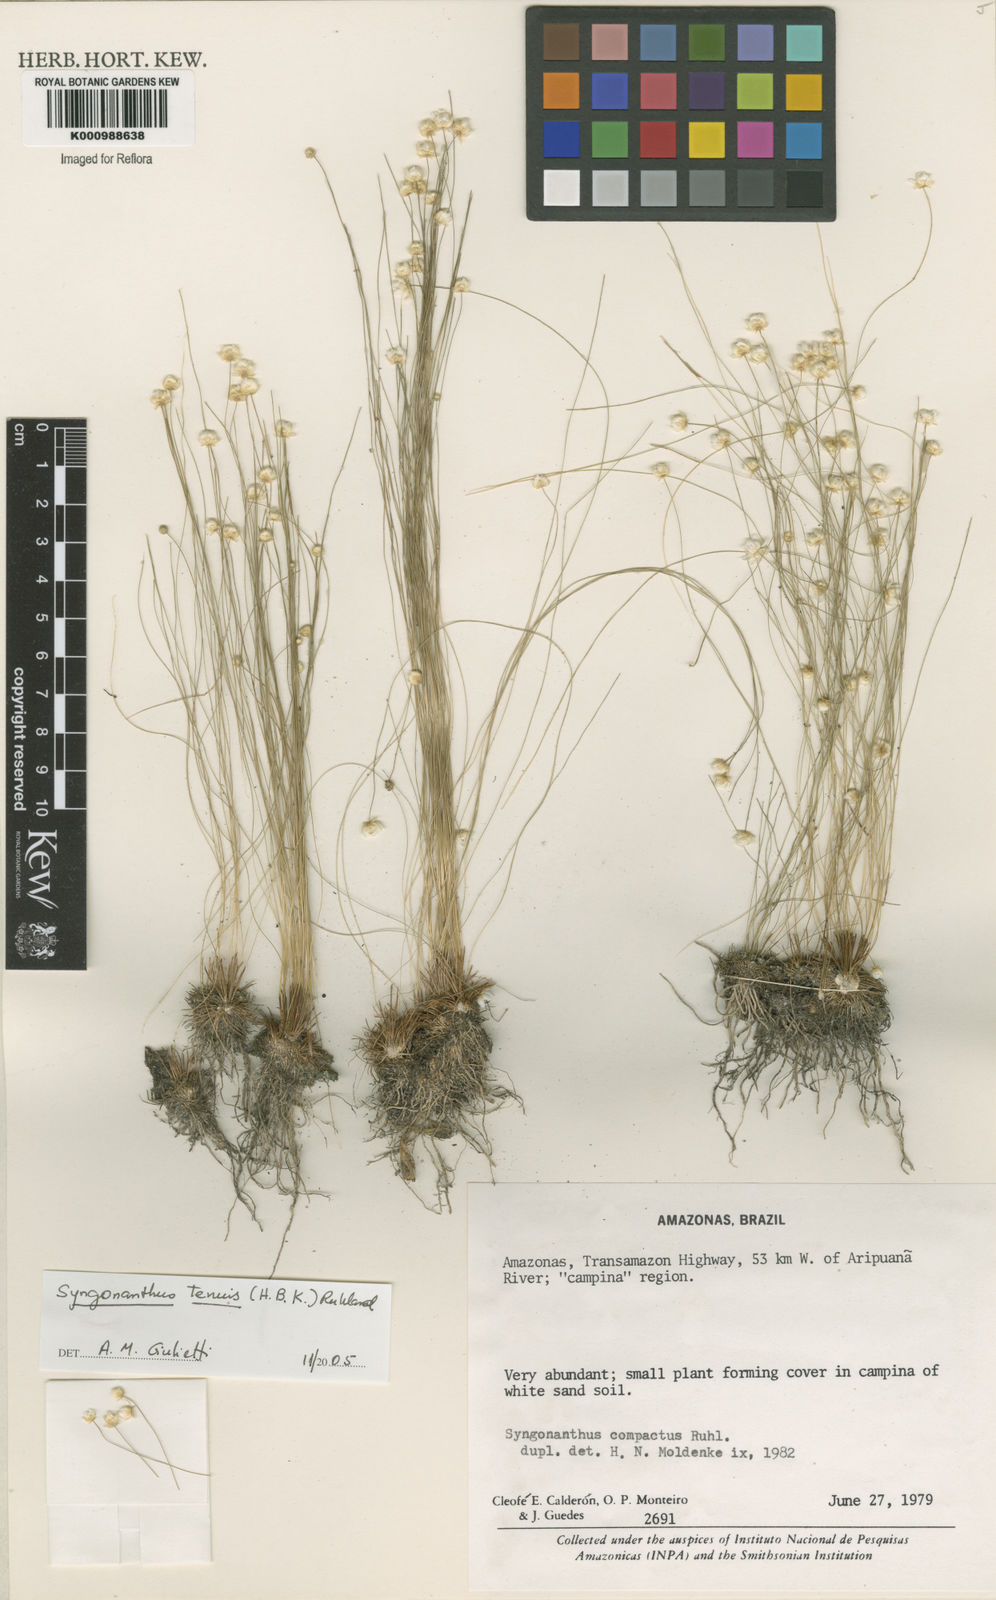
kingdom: Plantae
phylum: Tracheophyta
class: Liliopsida
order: Poales
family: Eriocaulaceae
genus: Syngonanthus
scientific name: Syngonanthus tenuis
